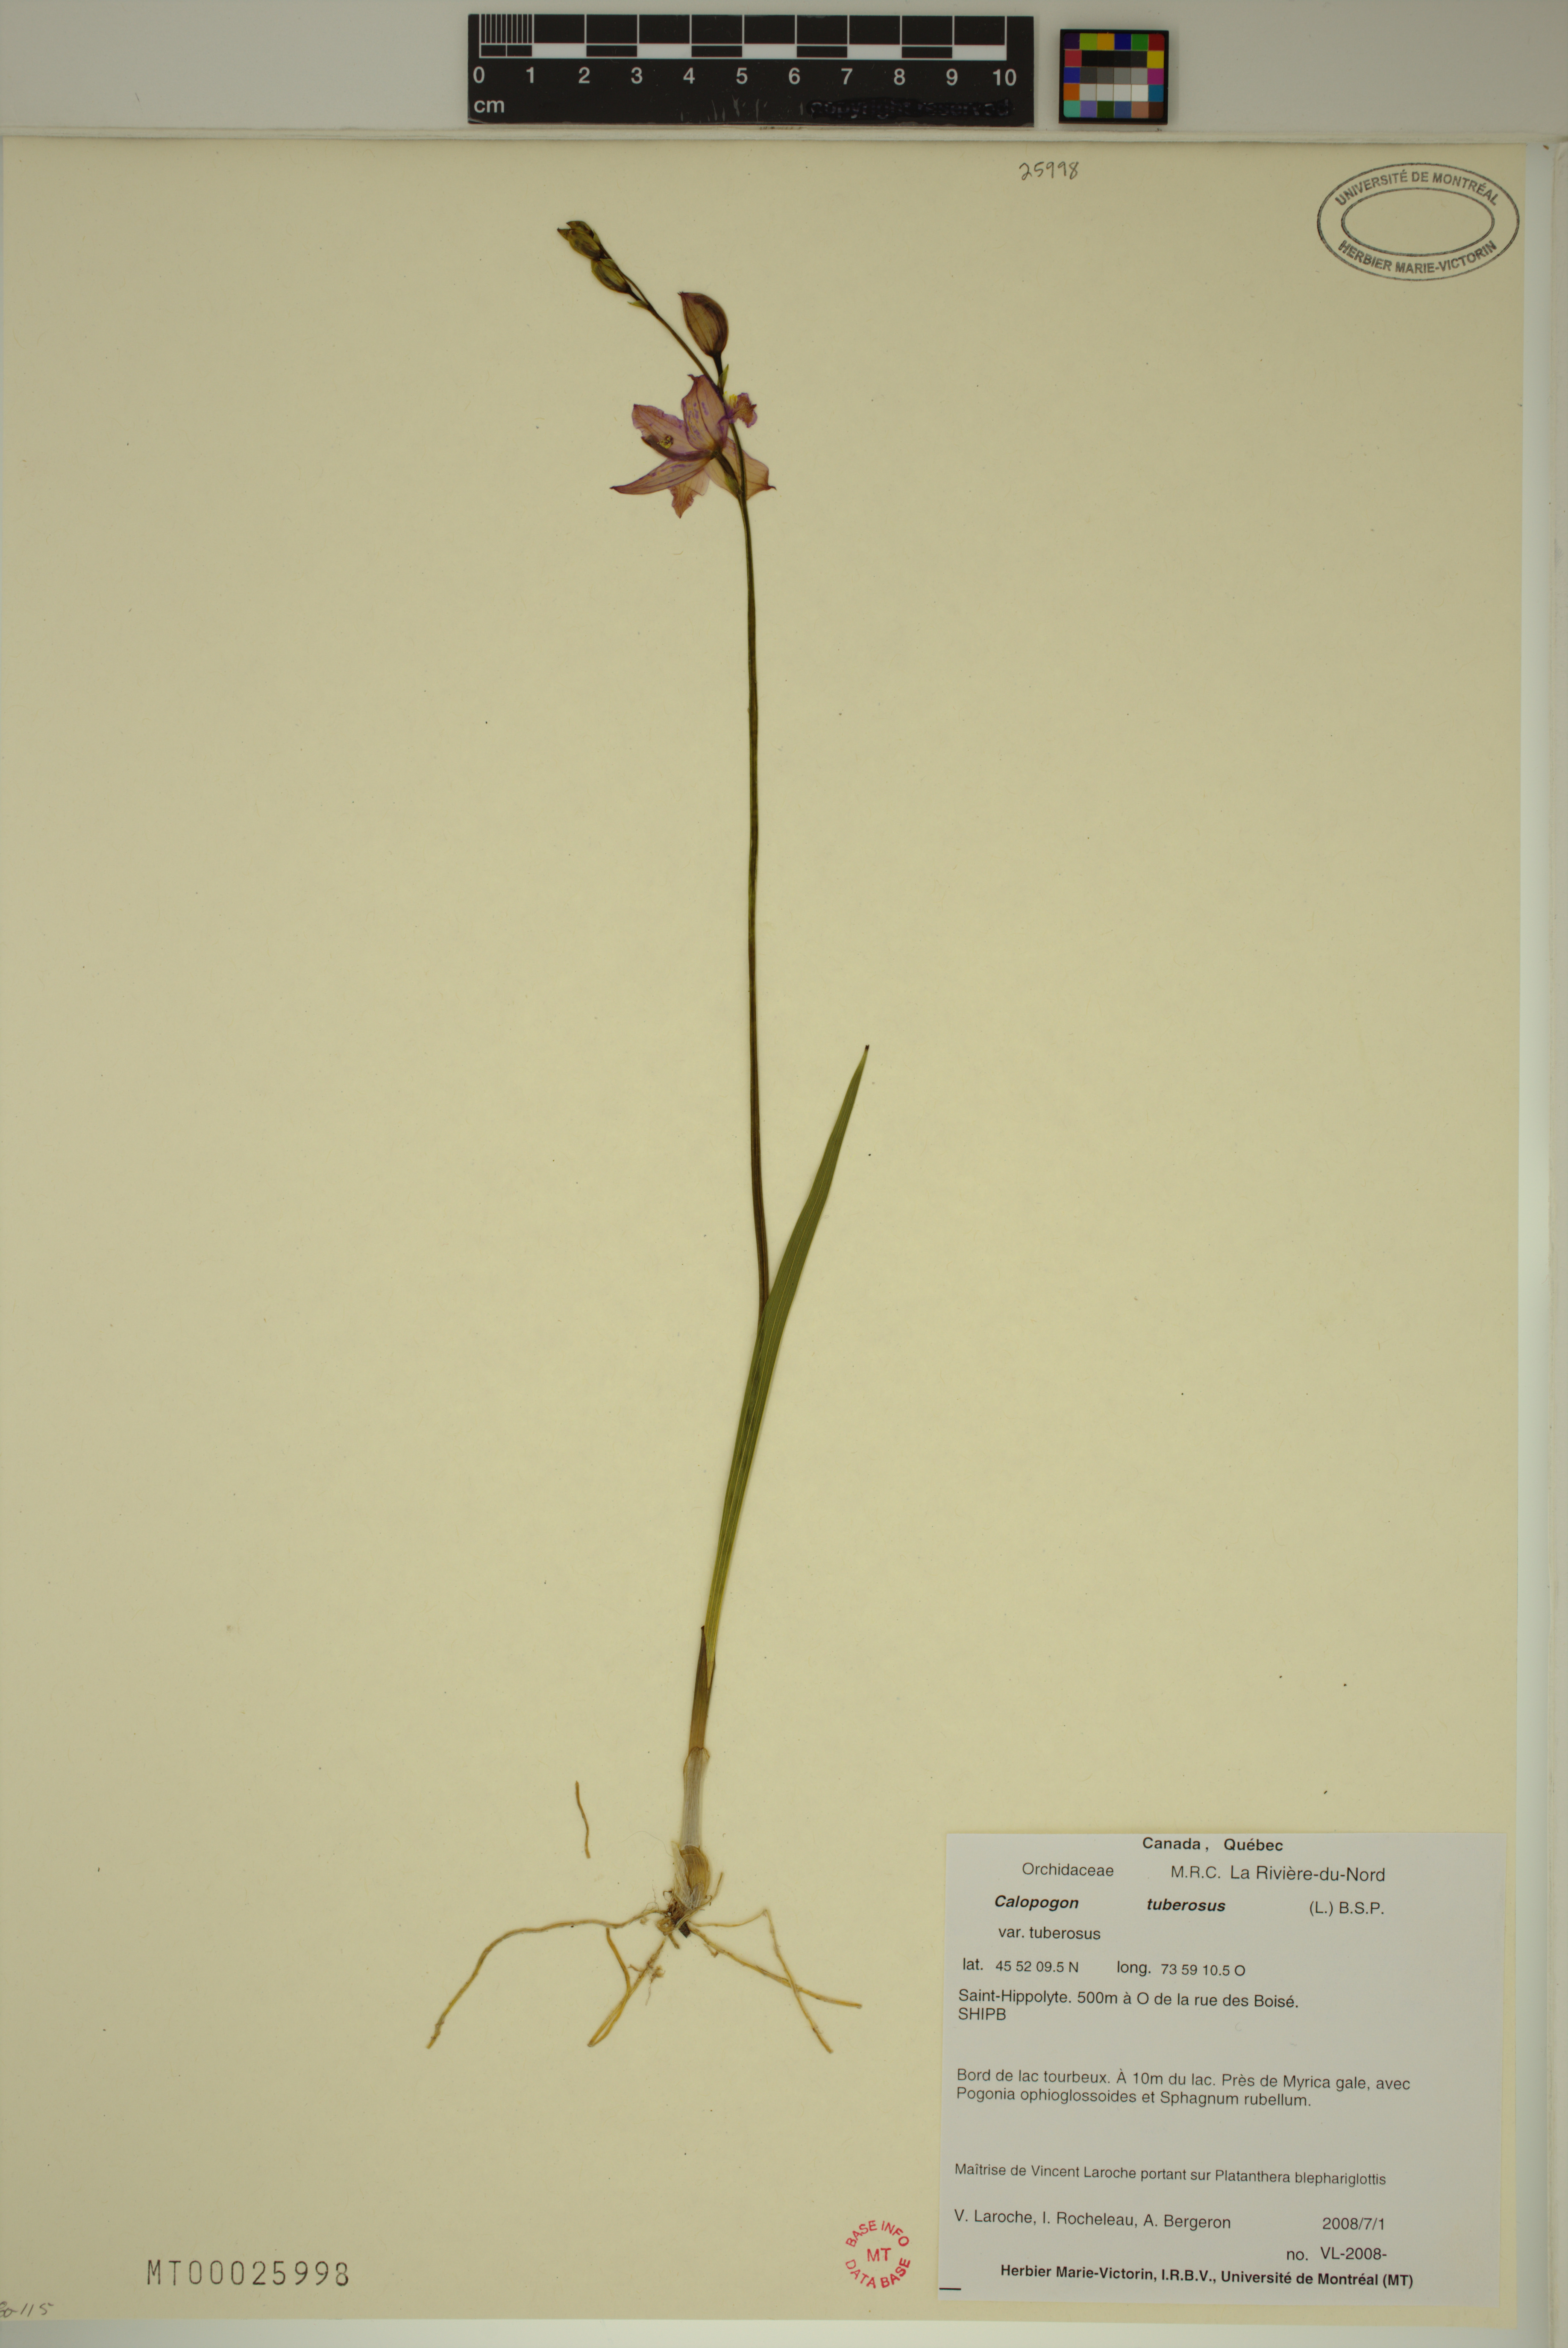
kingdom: Plantae
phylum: Tracheophyta
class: Liliopsida
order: Asparagales
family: Orchidaceae
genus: Calopogon
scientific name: Calopogon tuberosus
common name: Grass-pink
